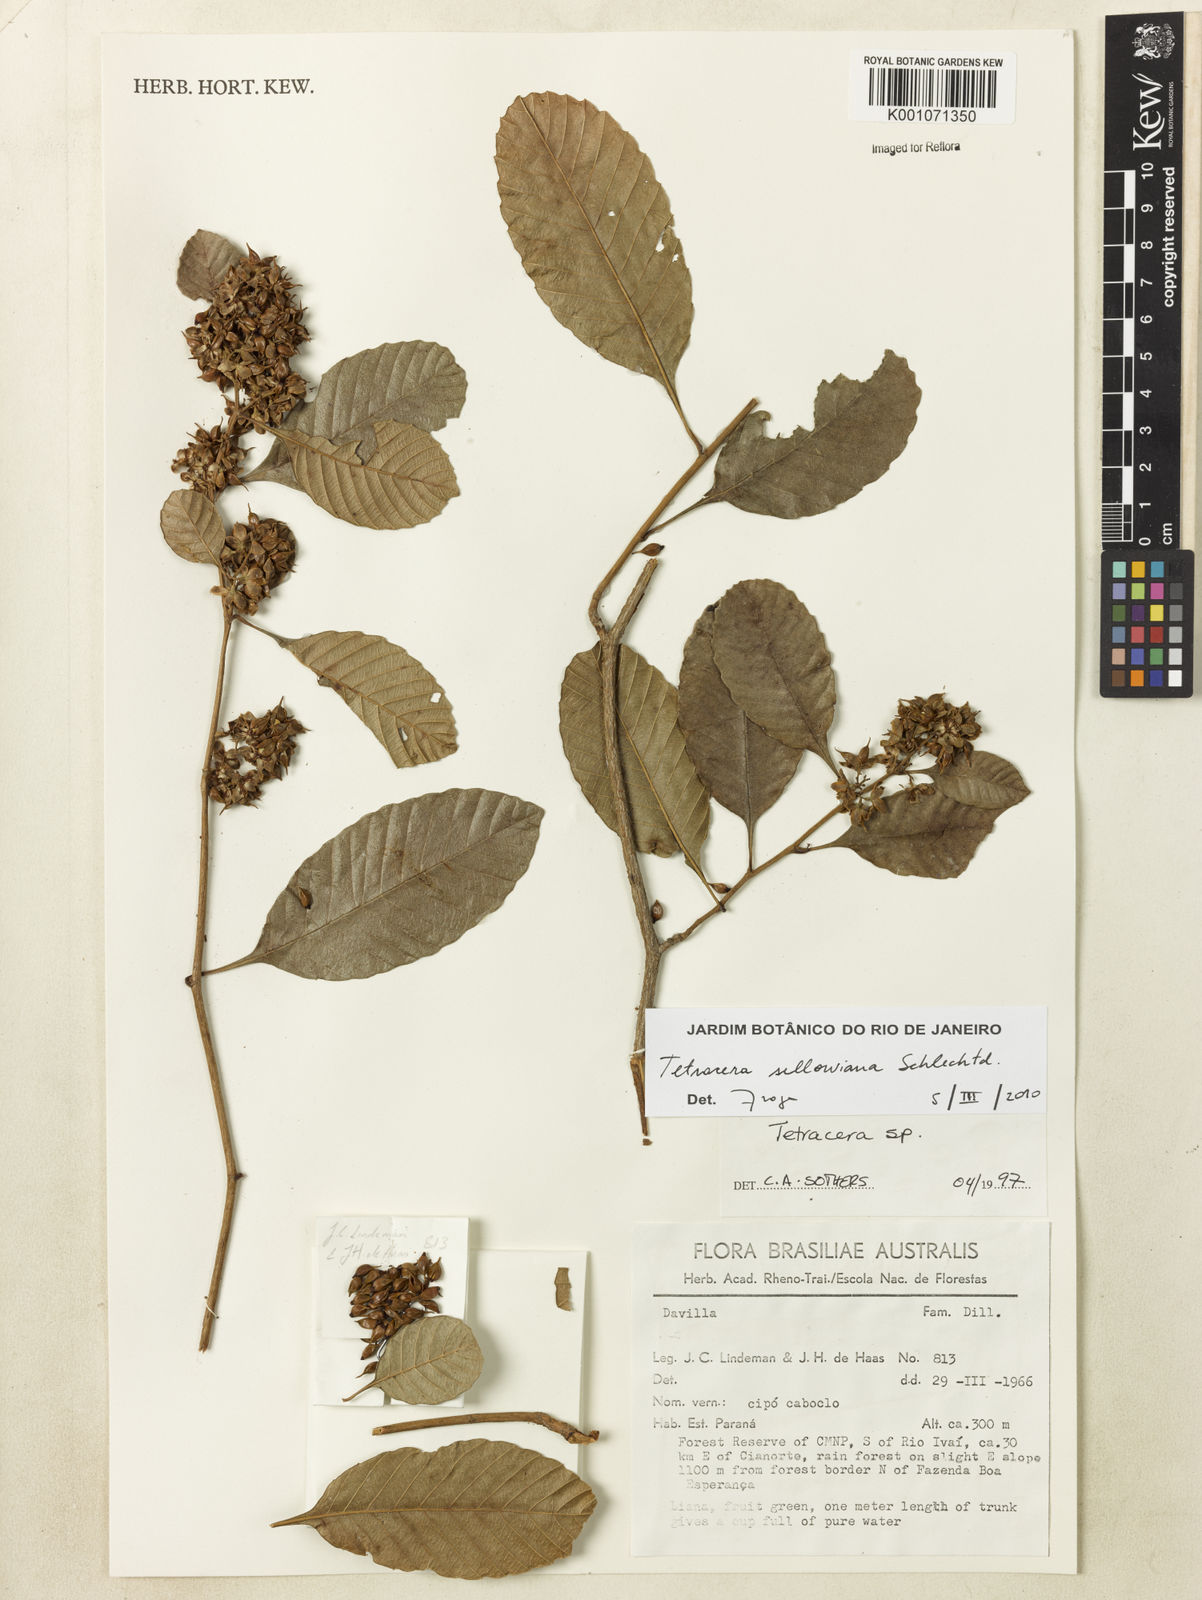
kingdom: Plantae
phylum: Tracheophyta
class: Magnoliopsida
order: Dilleniales
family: Dilleniaceae
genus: Tetracera
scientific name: Tetracera sellowiana
